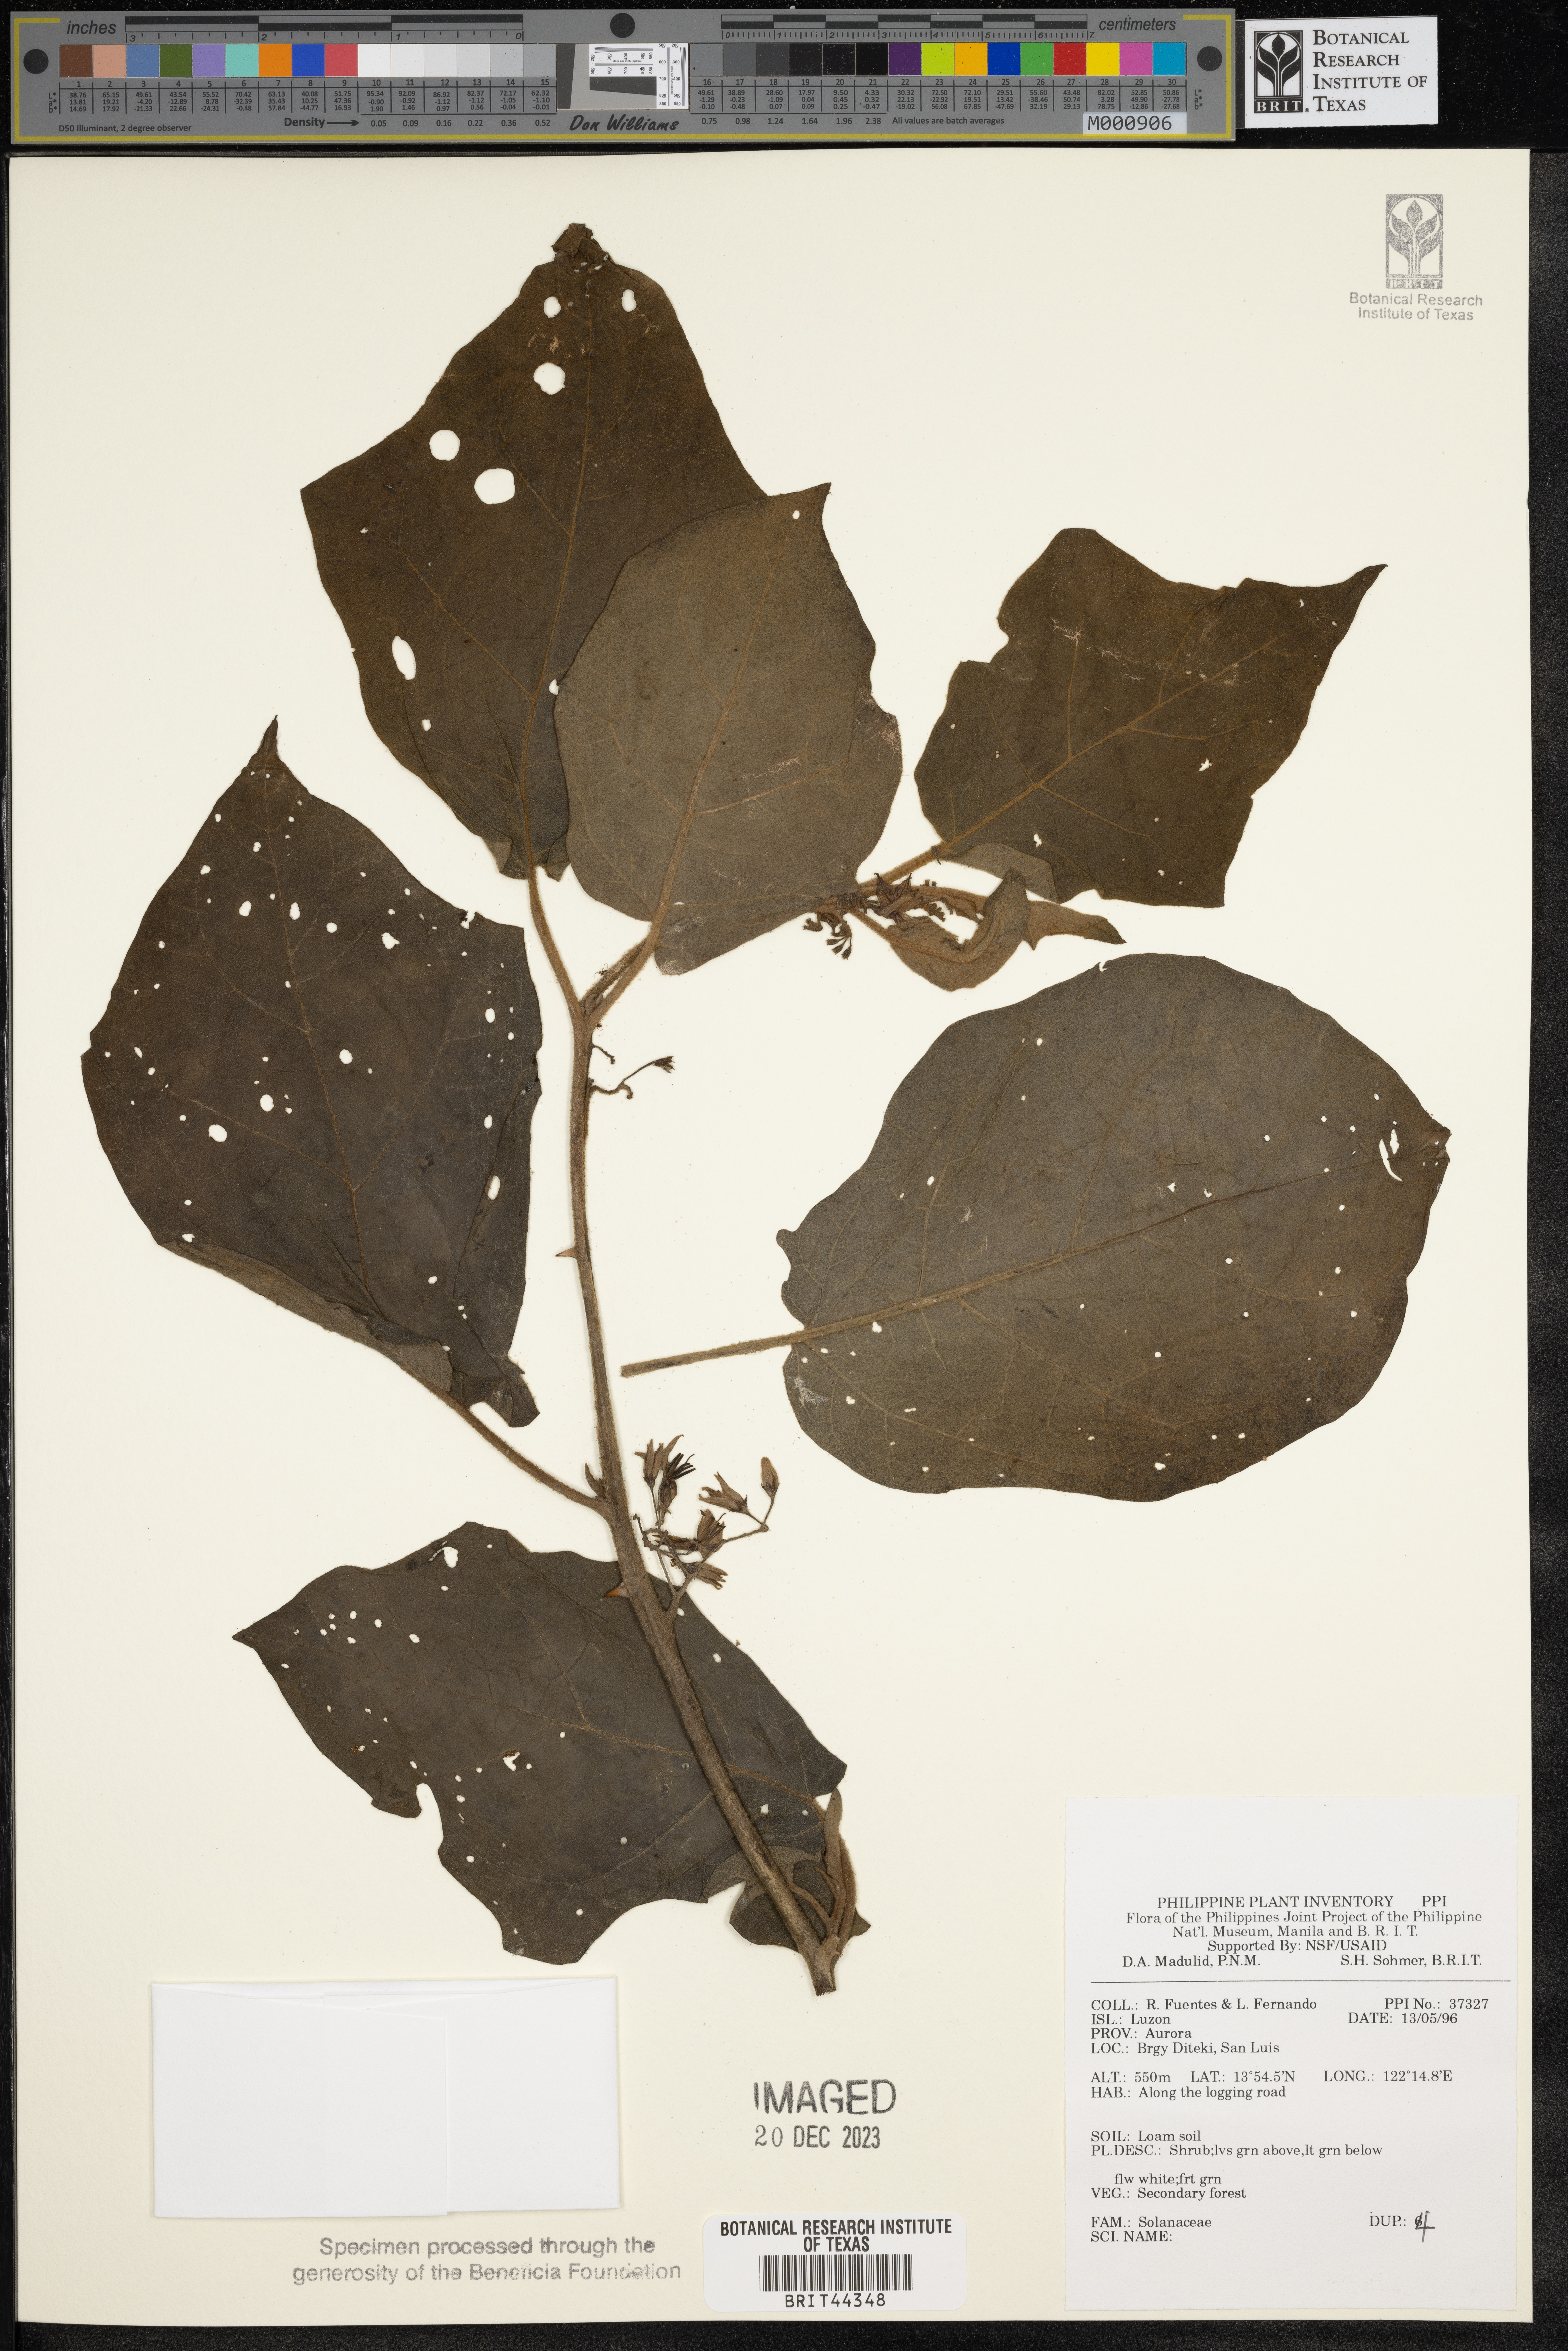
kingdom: Plantae
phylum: Tracheophyta
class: Magnoliopsida
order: Solanales
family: Solanaceae
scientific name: Solanaceae
